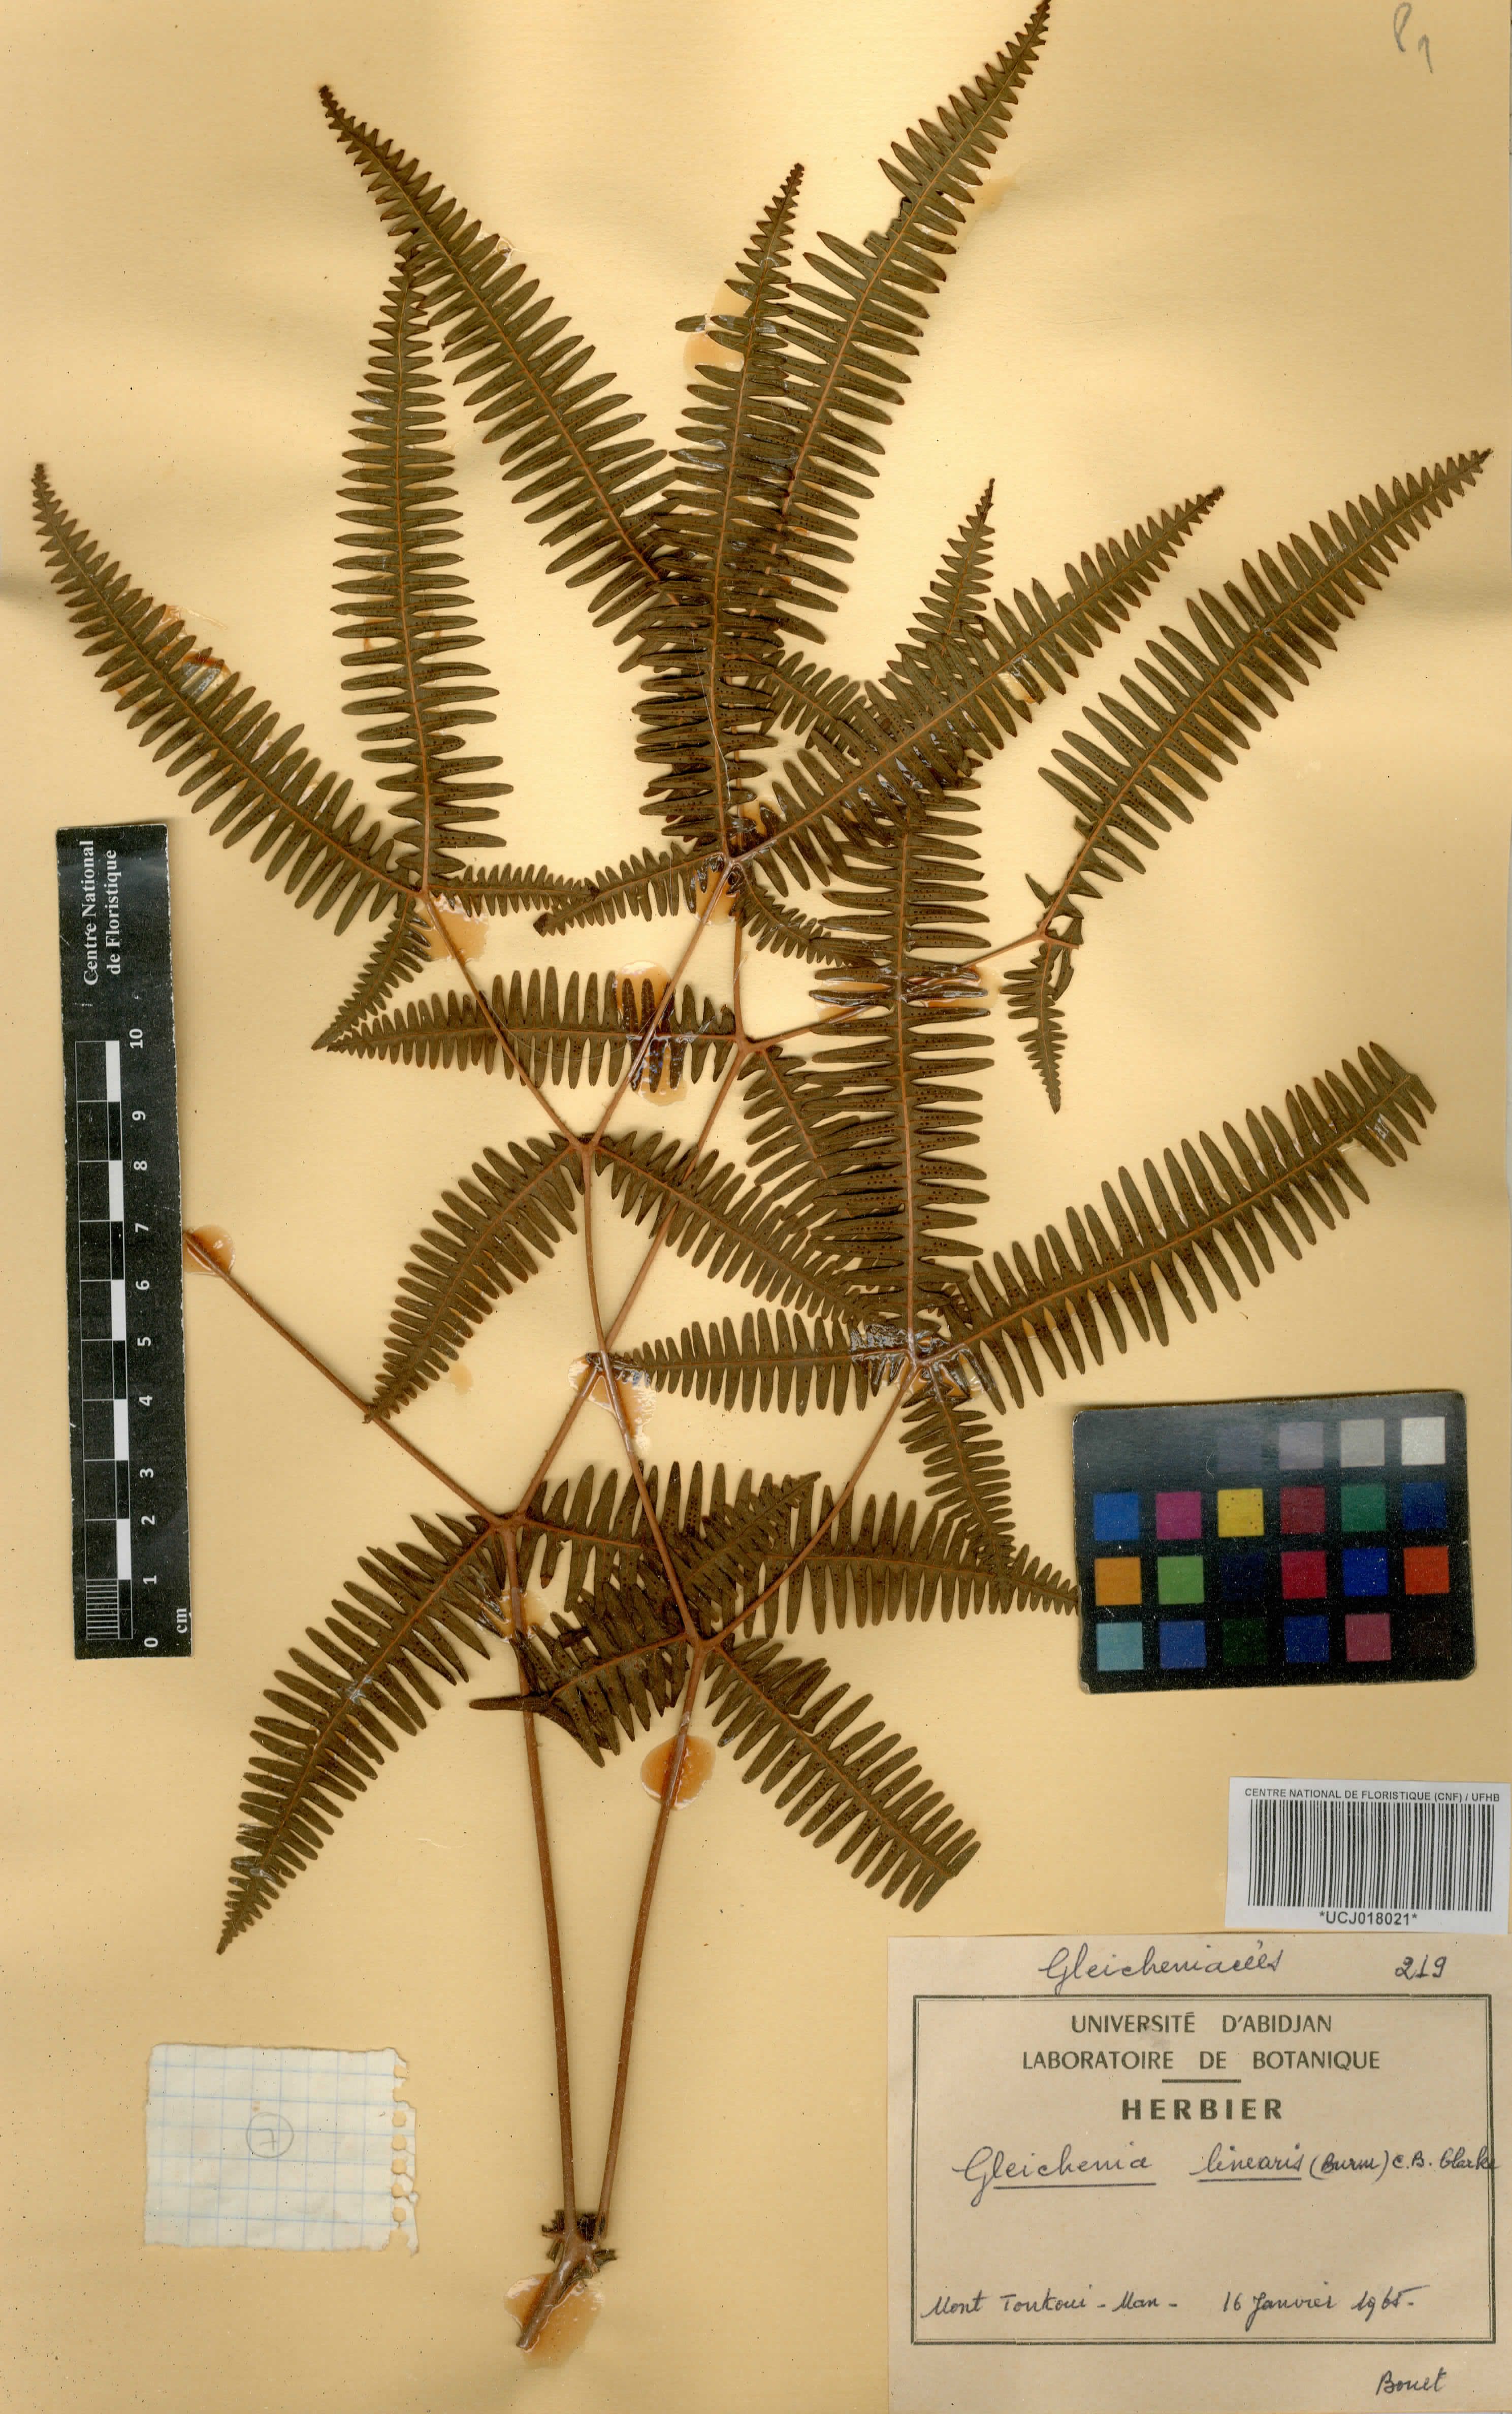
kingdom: Plantae
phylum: Tracheophyta
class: Polypodiopsida
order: Gleicheniales
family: Gleicheniaceae
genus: Dicranopteris
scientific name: Dicranopteris linearis
